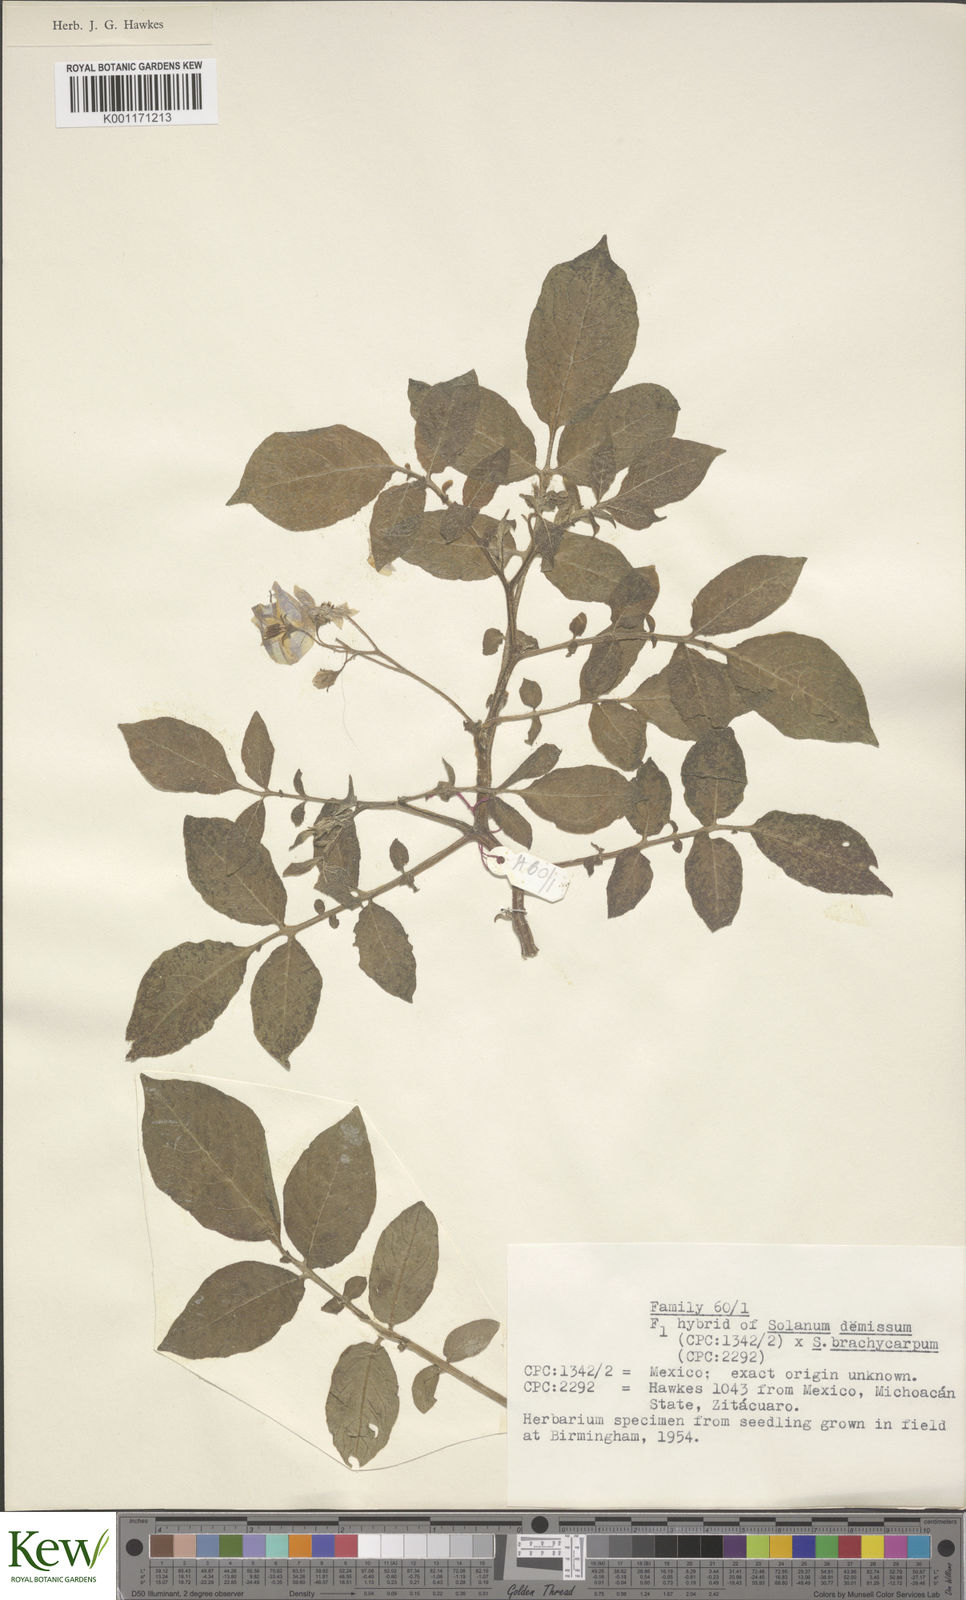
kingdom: Plantae
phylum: Tracheophyta
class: Magnoliopsida
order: Solanales
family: Solanaceae
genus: Solanum
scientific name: Solanum demissum
